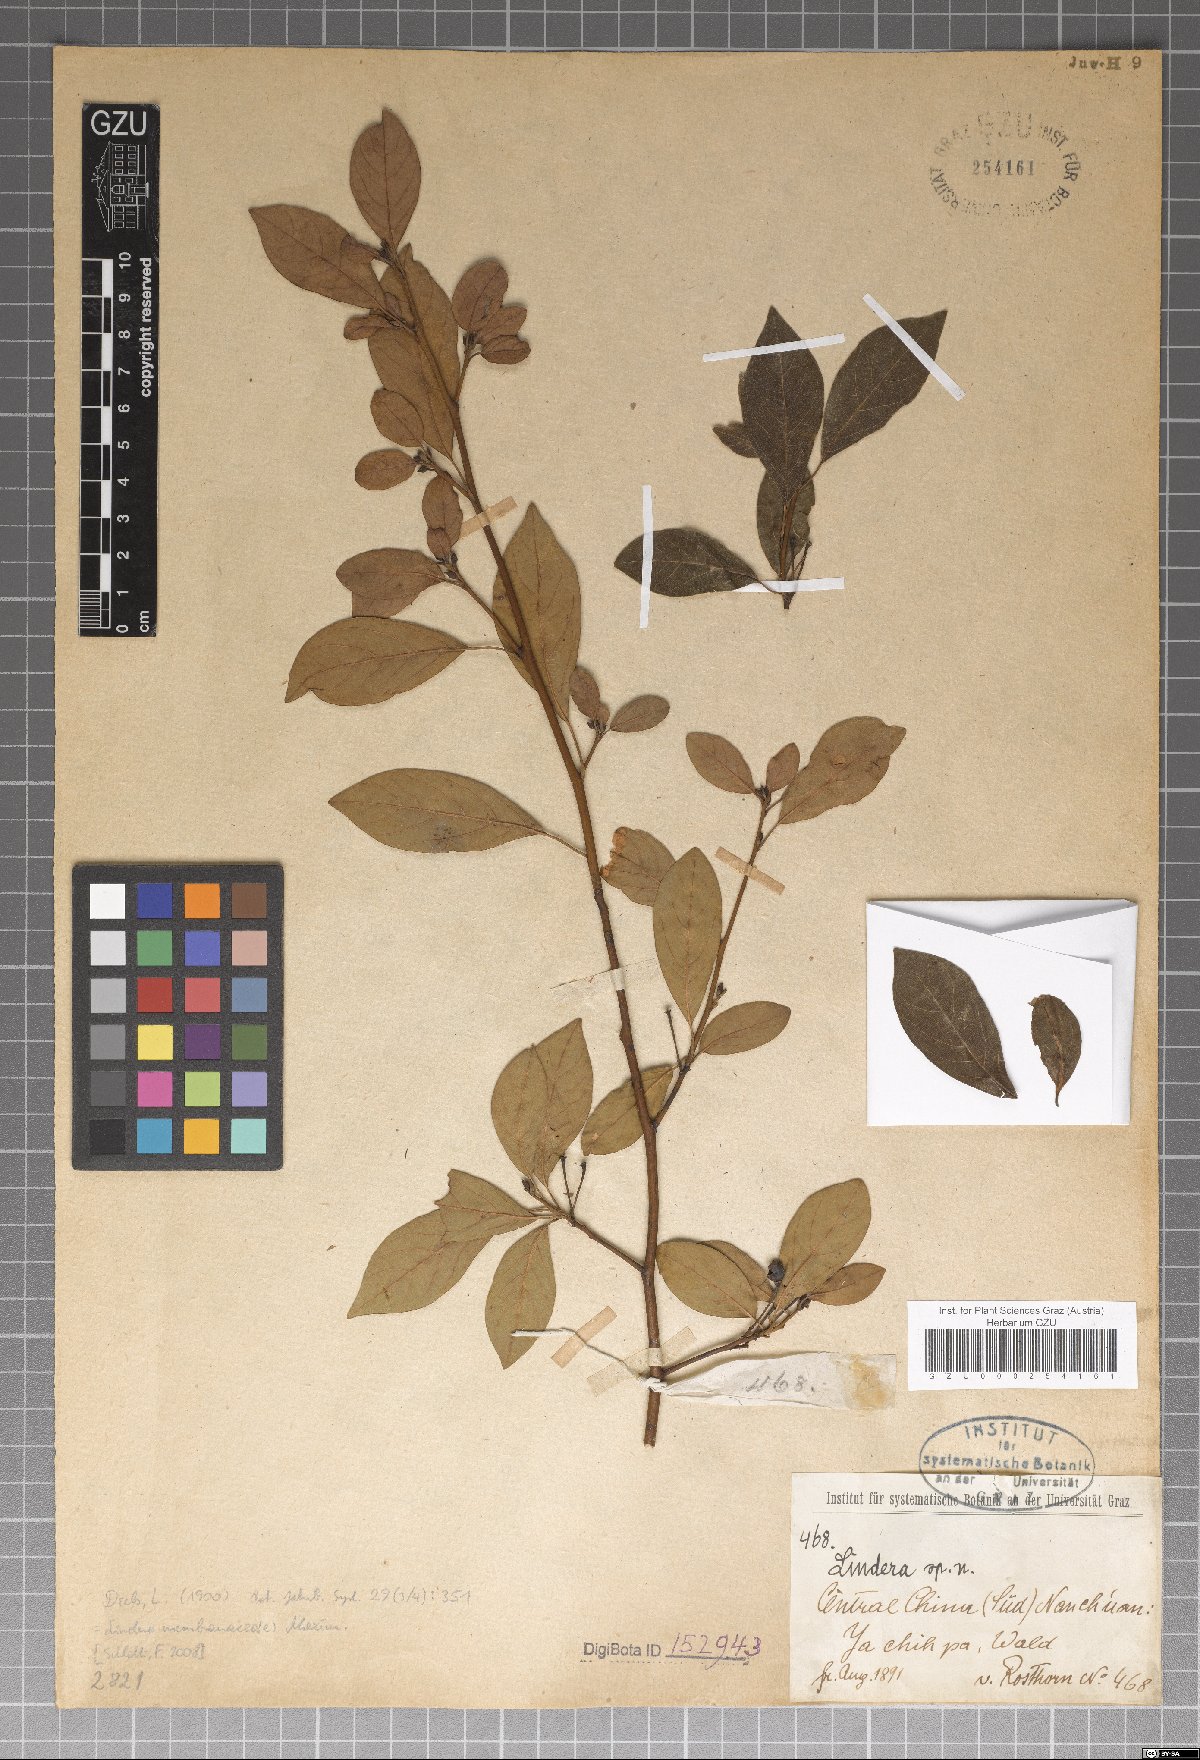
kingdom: Plantae
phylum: Tracheophyta
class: Magnoliopsida
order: Laurales
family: Lauraceae
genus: Lindera
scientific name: Lindera umbellata
